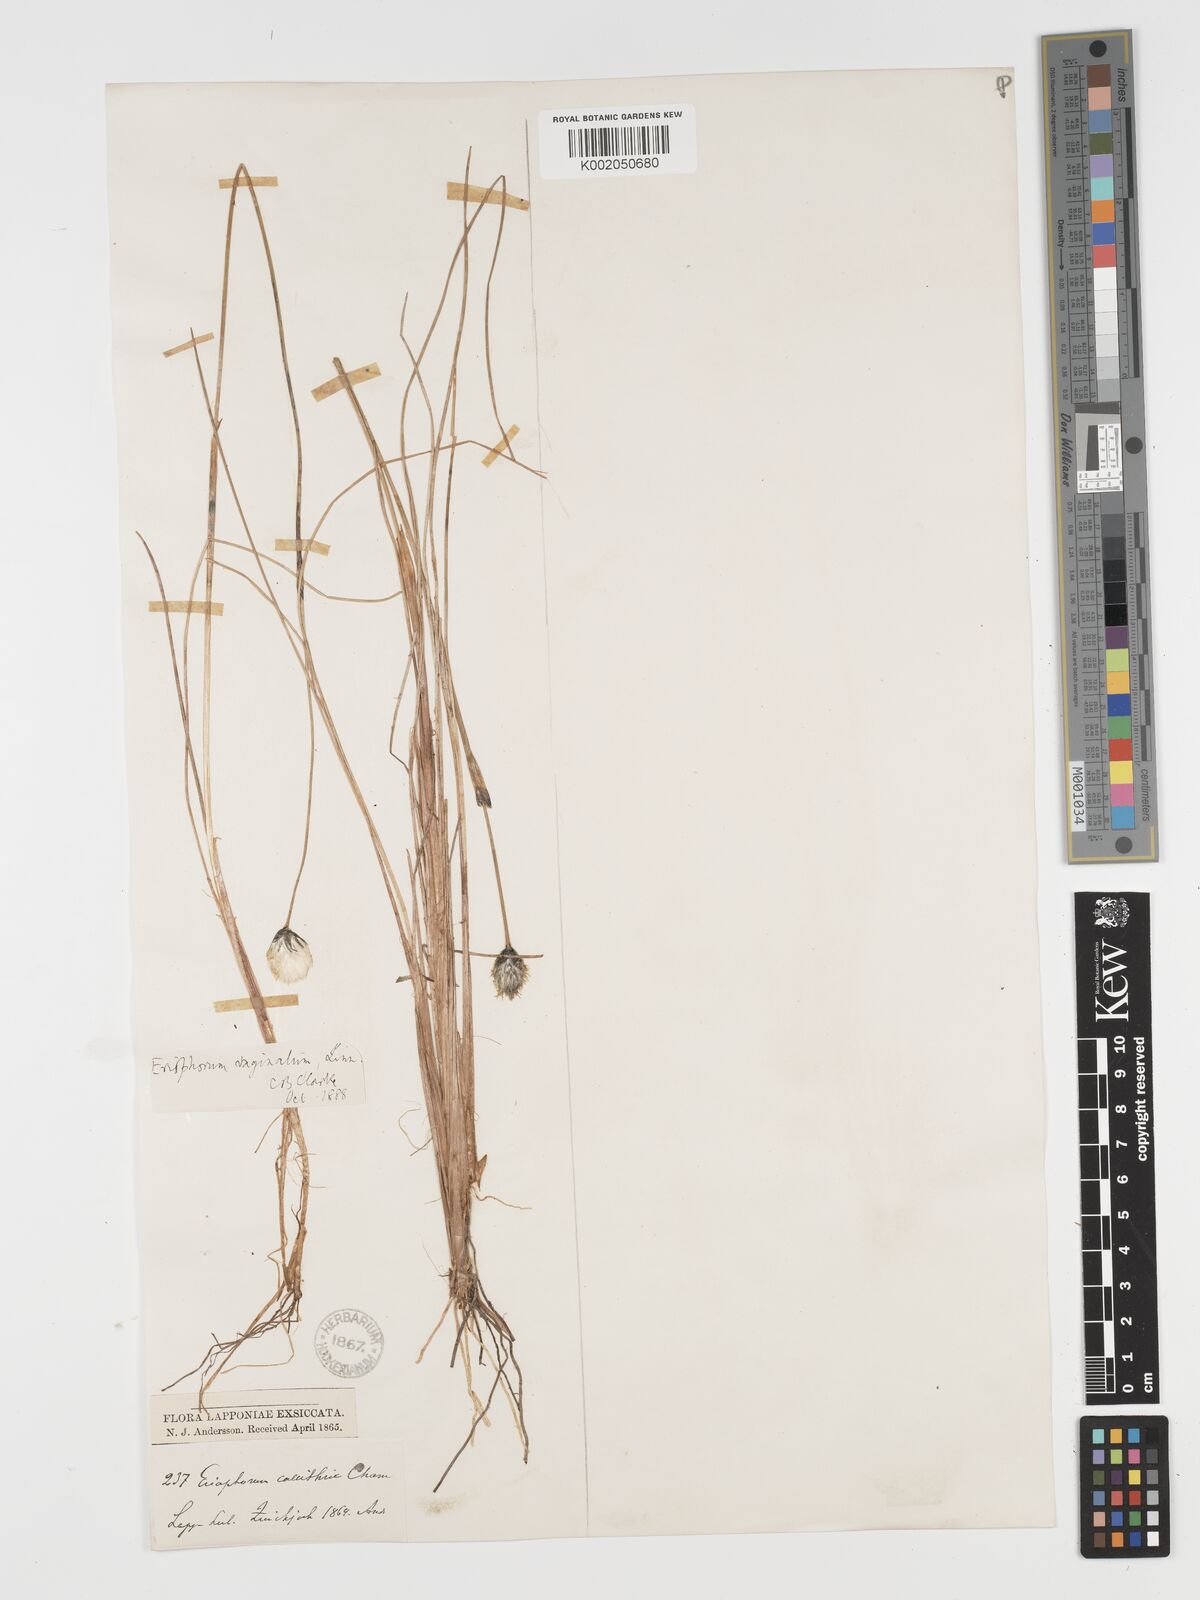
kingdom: Plantae
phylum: Tracheophyta
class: Liliopsida
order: Poales
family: Cyperaceae
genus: Eriophorum
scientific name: Eriophorum vaginatum
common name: Hare's-tail cottongrass
